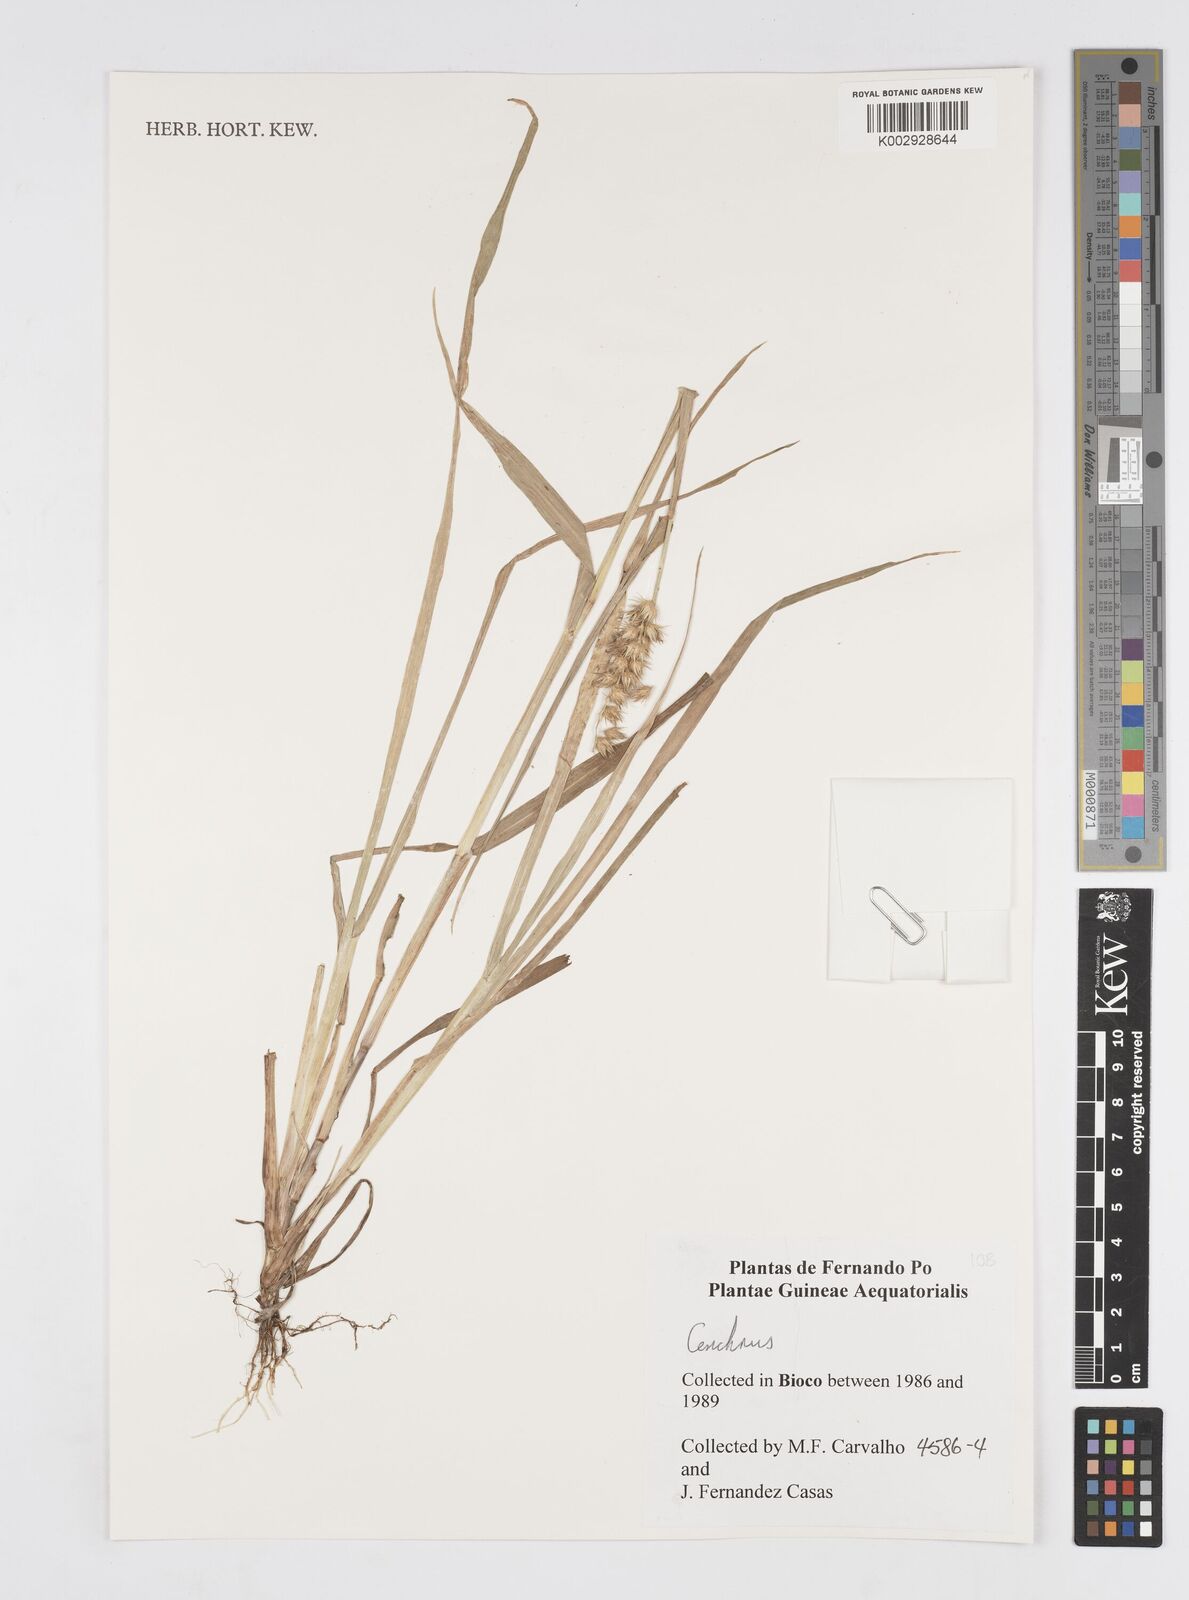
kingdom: Plantae
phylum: Tracheophyta
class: Liliopsida
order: Poales
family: Poaceae
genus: Cenchrus
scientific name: Cenchrus
